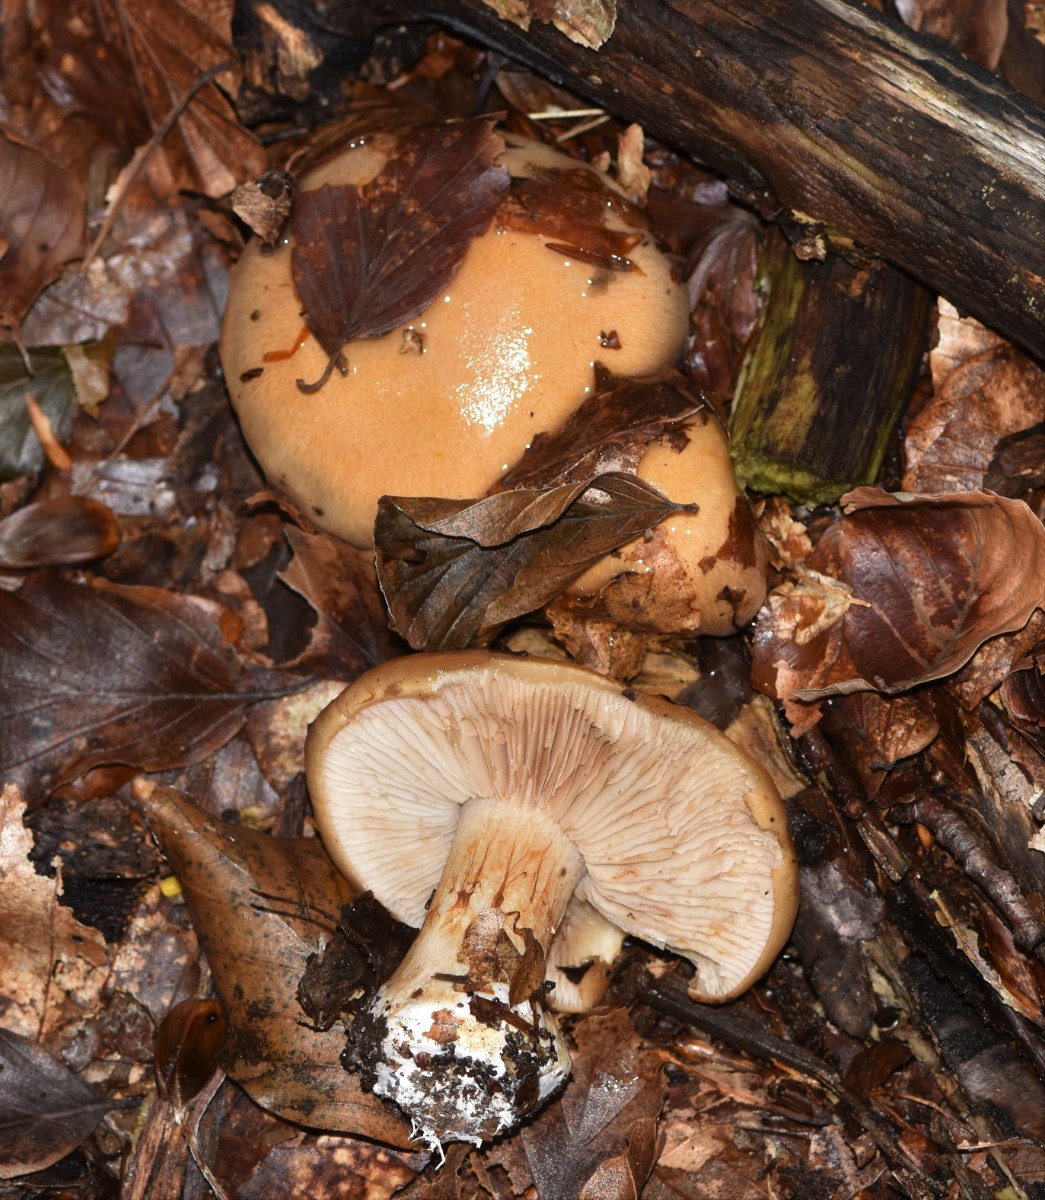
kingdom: Fungi
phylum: Basidiomycota
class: Agaricomycetes
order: Agaricales
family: Cortinariaceae
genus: Thaxterogaster
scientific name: Thaxterogaster talus
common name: knogle-slørhat
